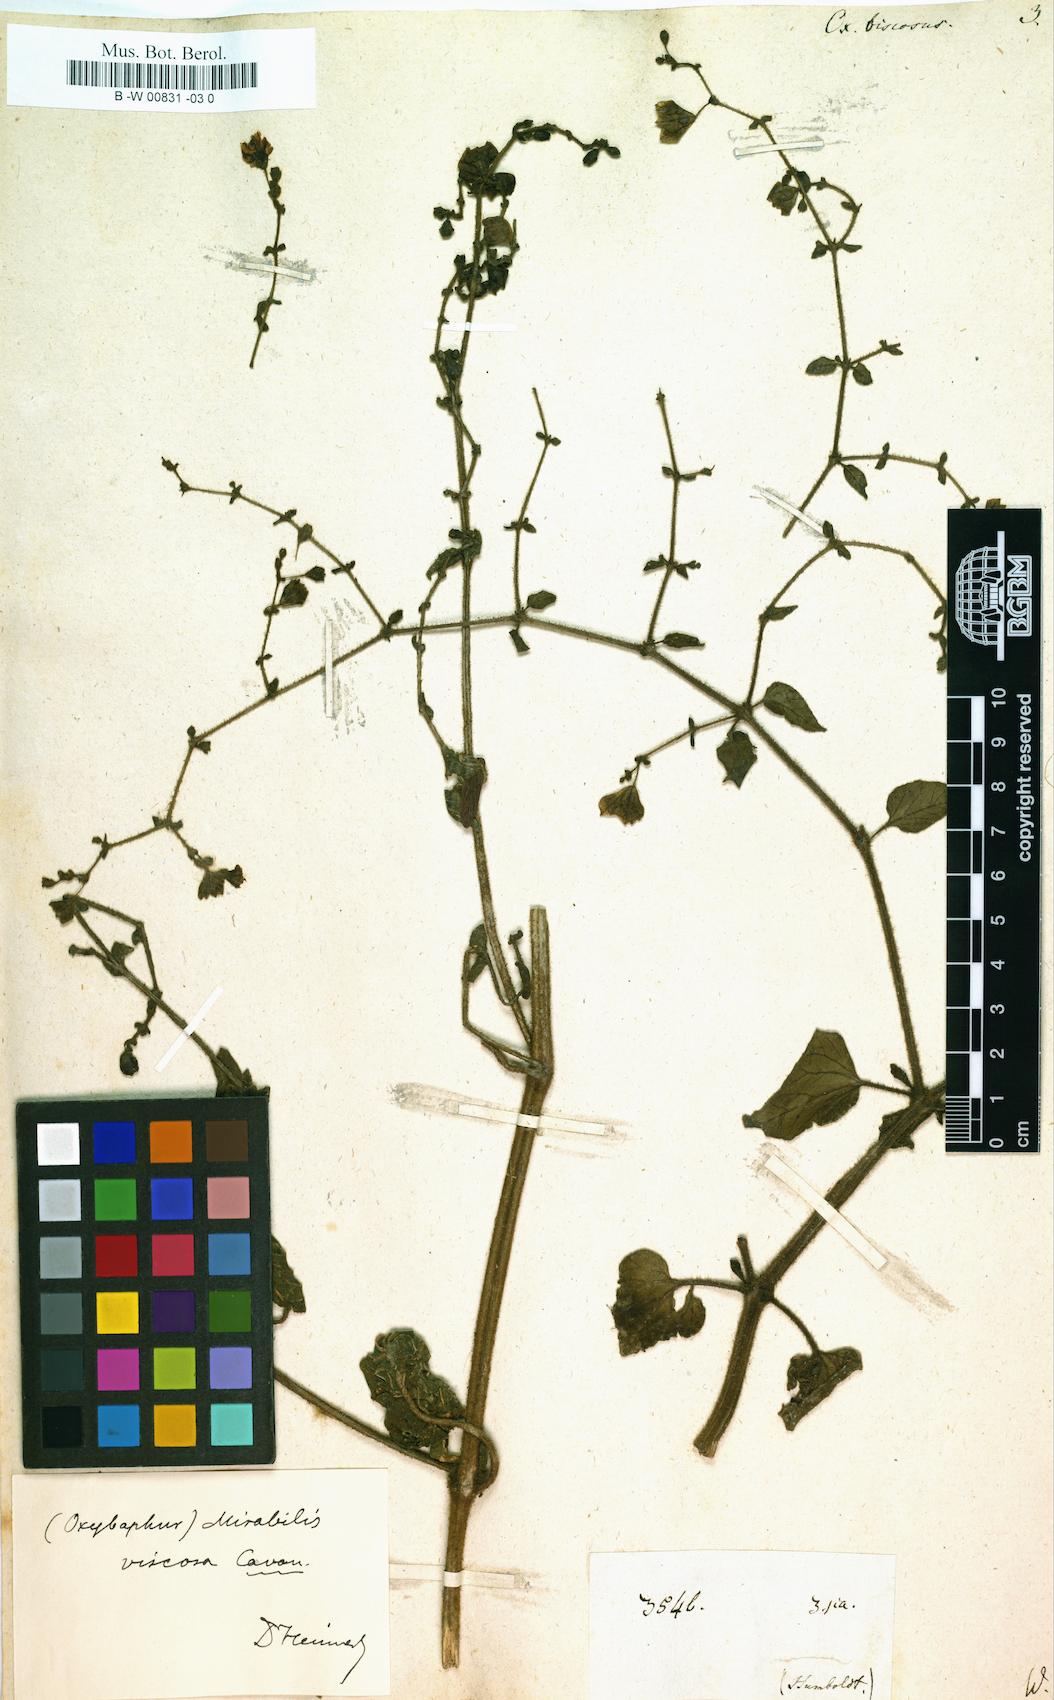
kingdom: Plantae
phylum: Tracheophyta
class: Magnoliopsida
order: Caryophyllales
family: Nyctaginaceae
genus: Mirabilis
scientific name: Mirabilis viscosa
